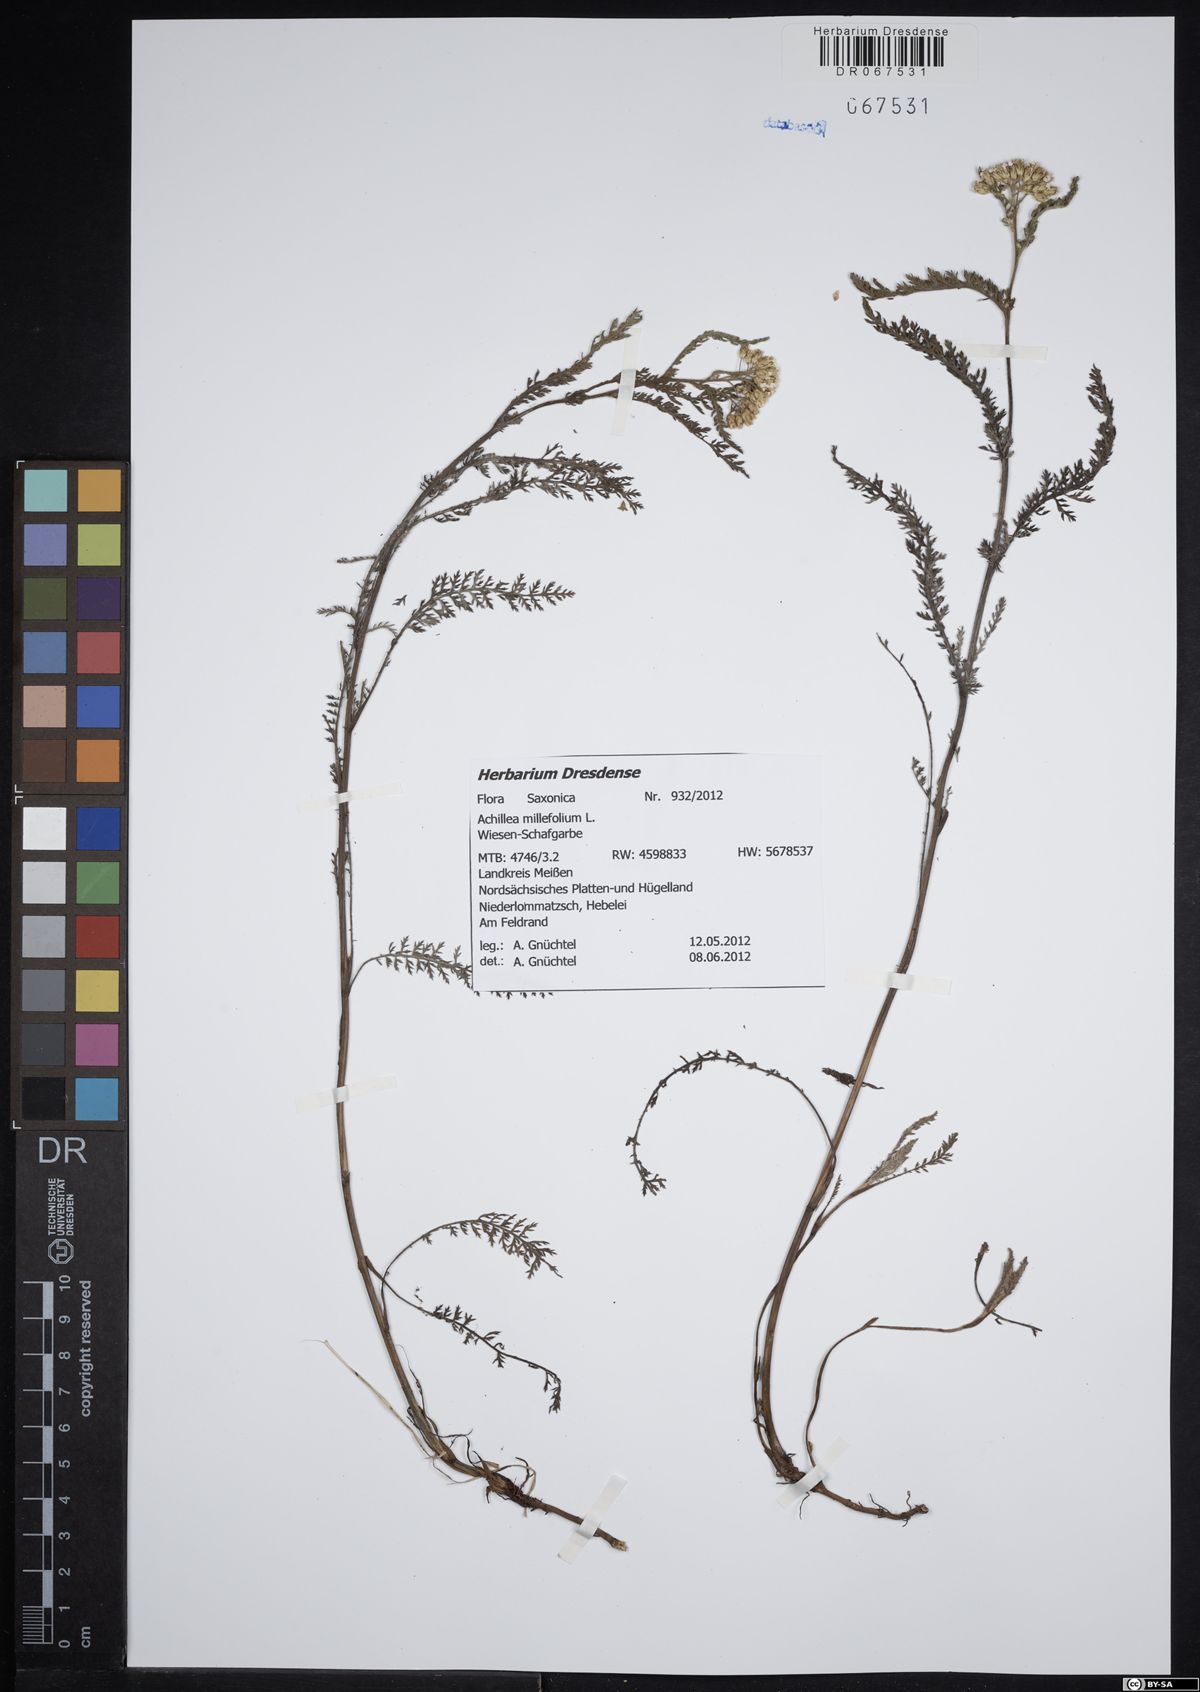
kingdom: Plantae
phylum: Tracheophyta
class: Magnoliopsida
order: Asterales
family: Asteraceae
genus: Achillea
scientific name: Achillea millefolium
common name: Yarrow
